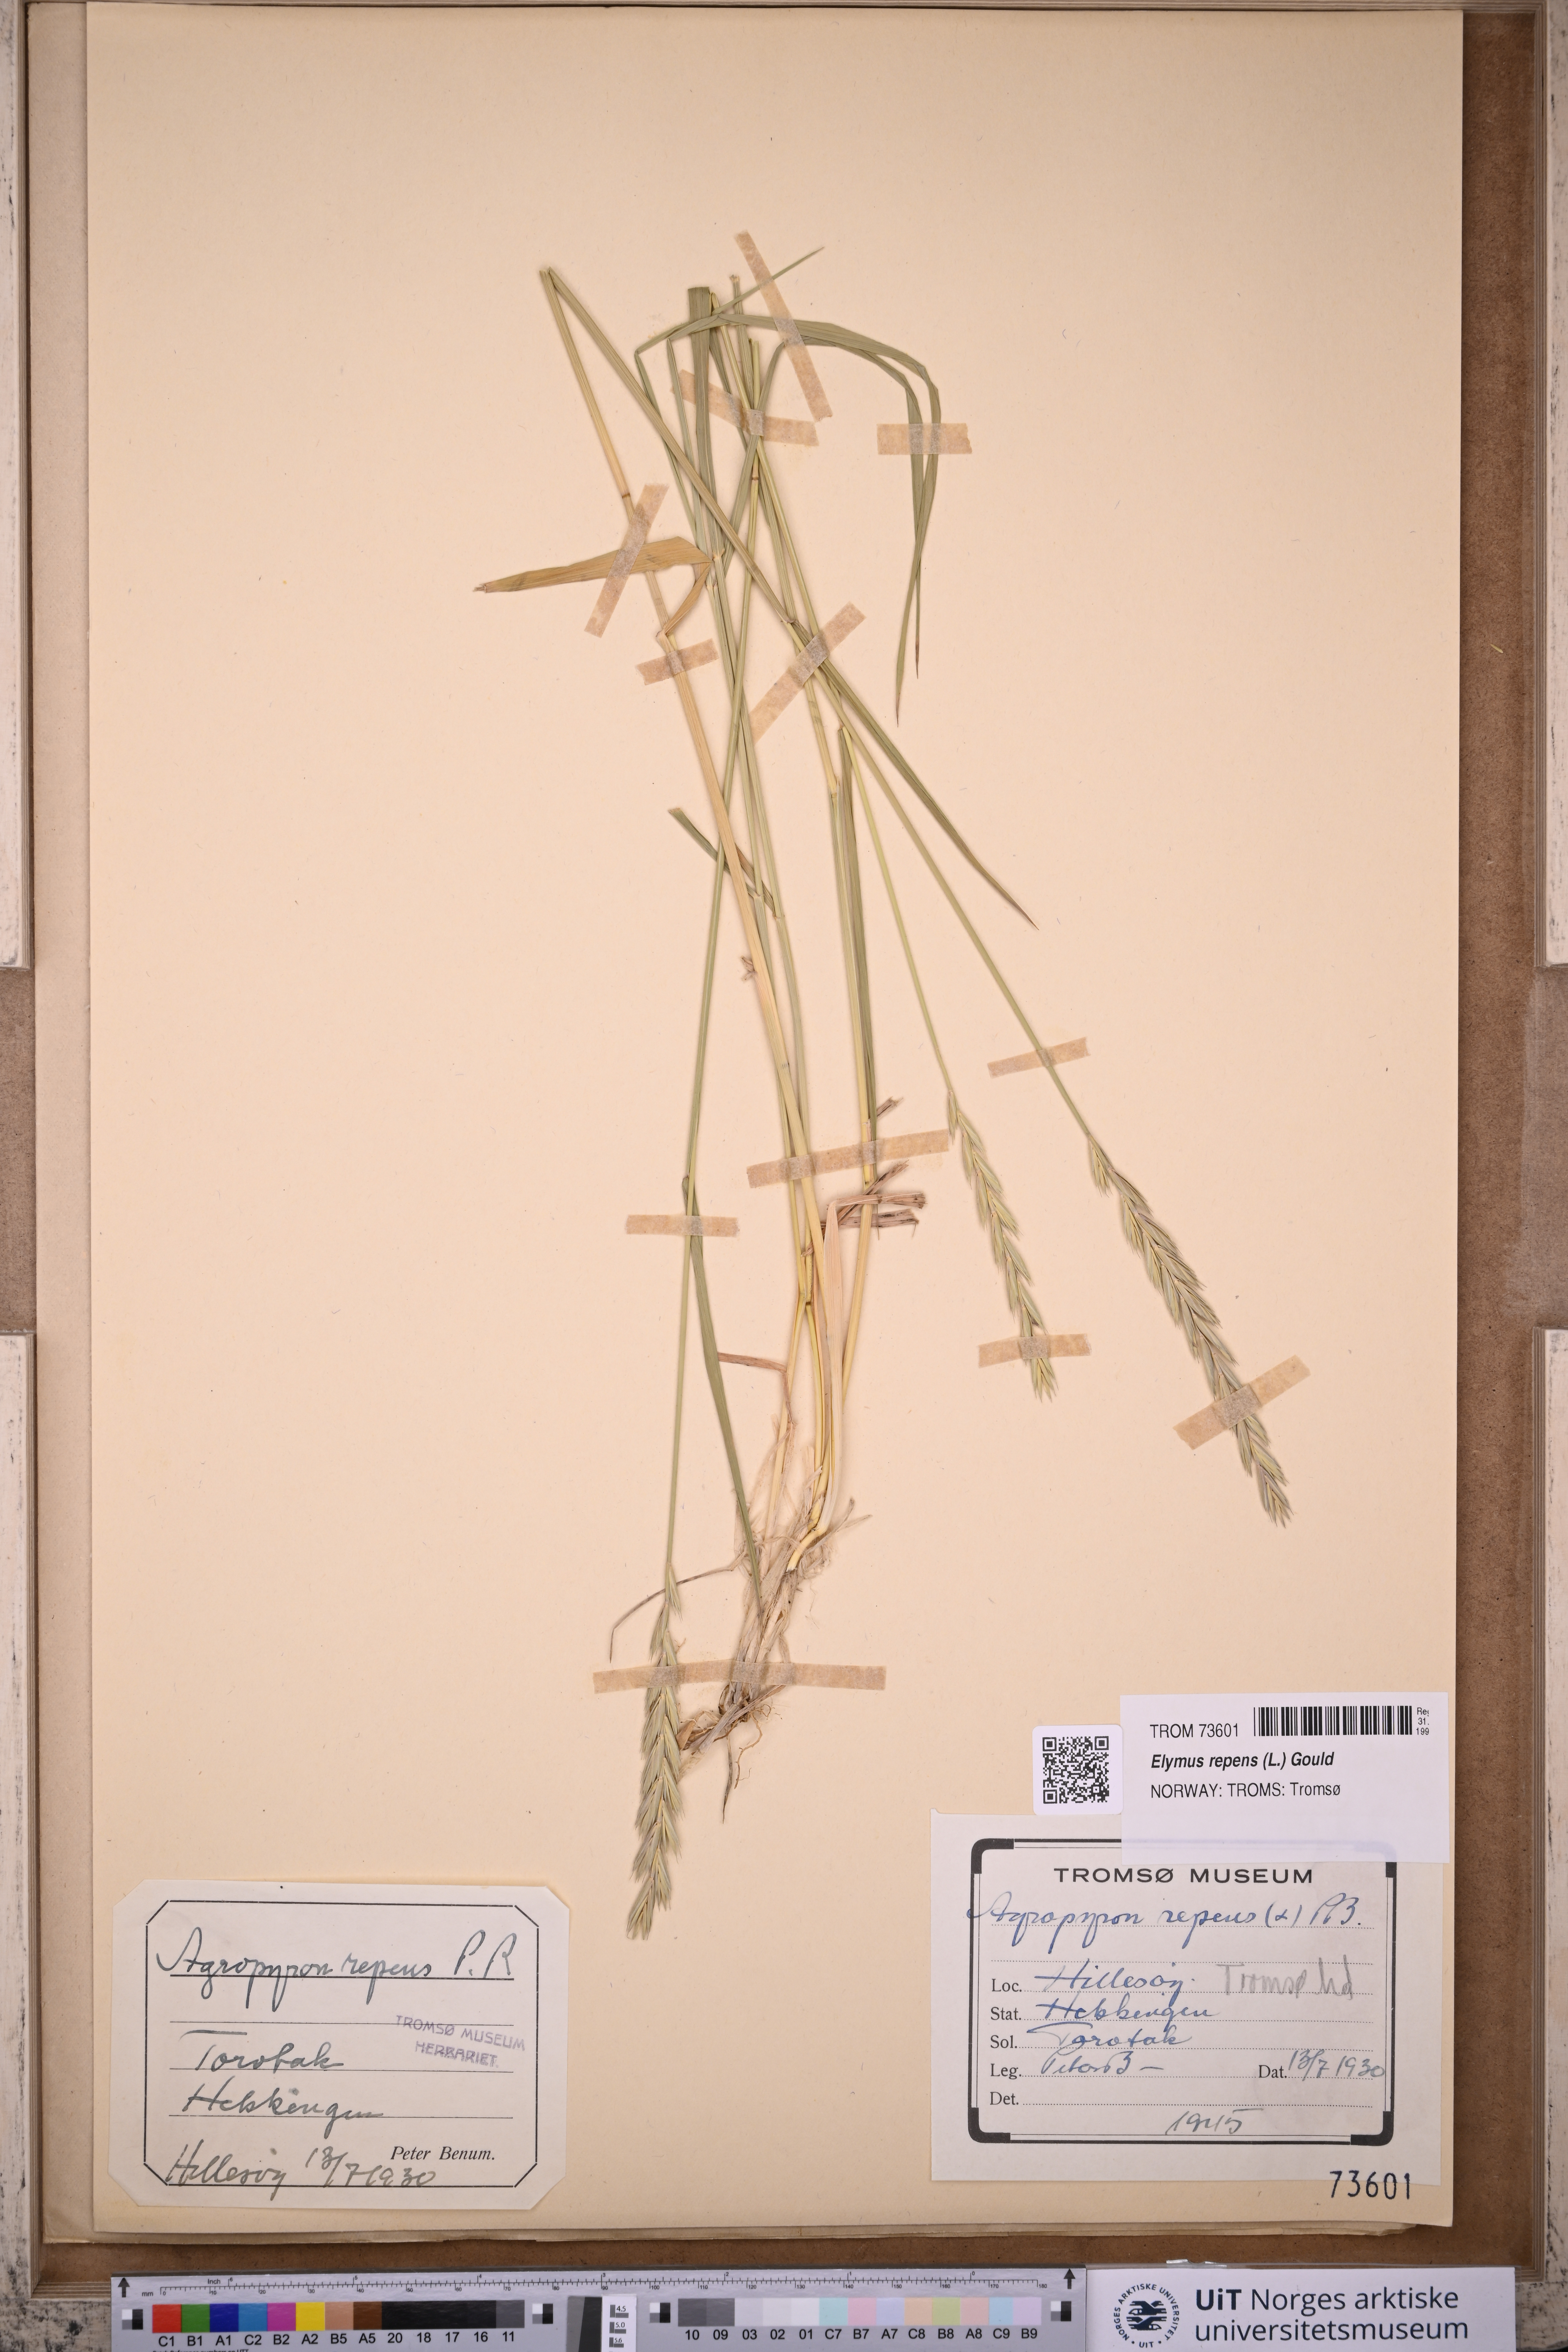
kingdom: Plantae
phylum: Tracheophyta
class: Liliopsida
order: Poales
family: Poaceae
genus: Elymus
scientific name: Elymus repens
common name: Quackgrass
